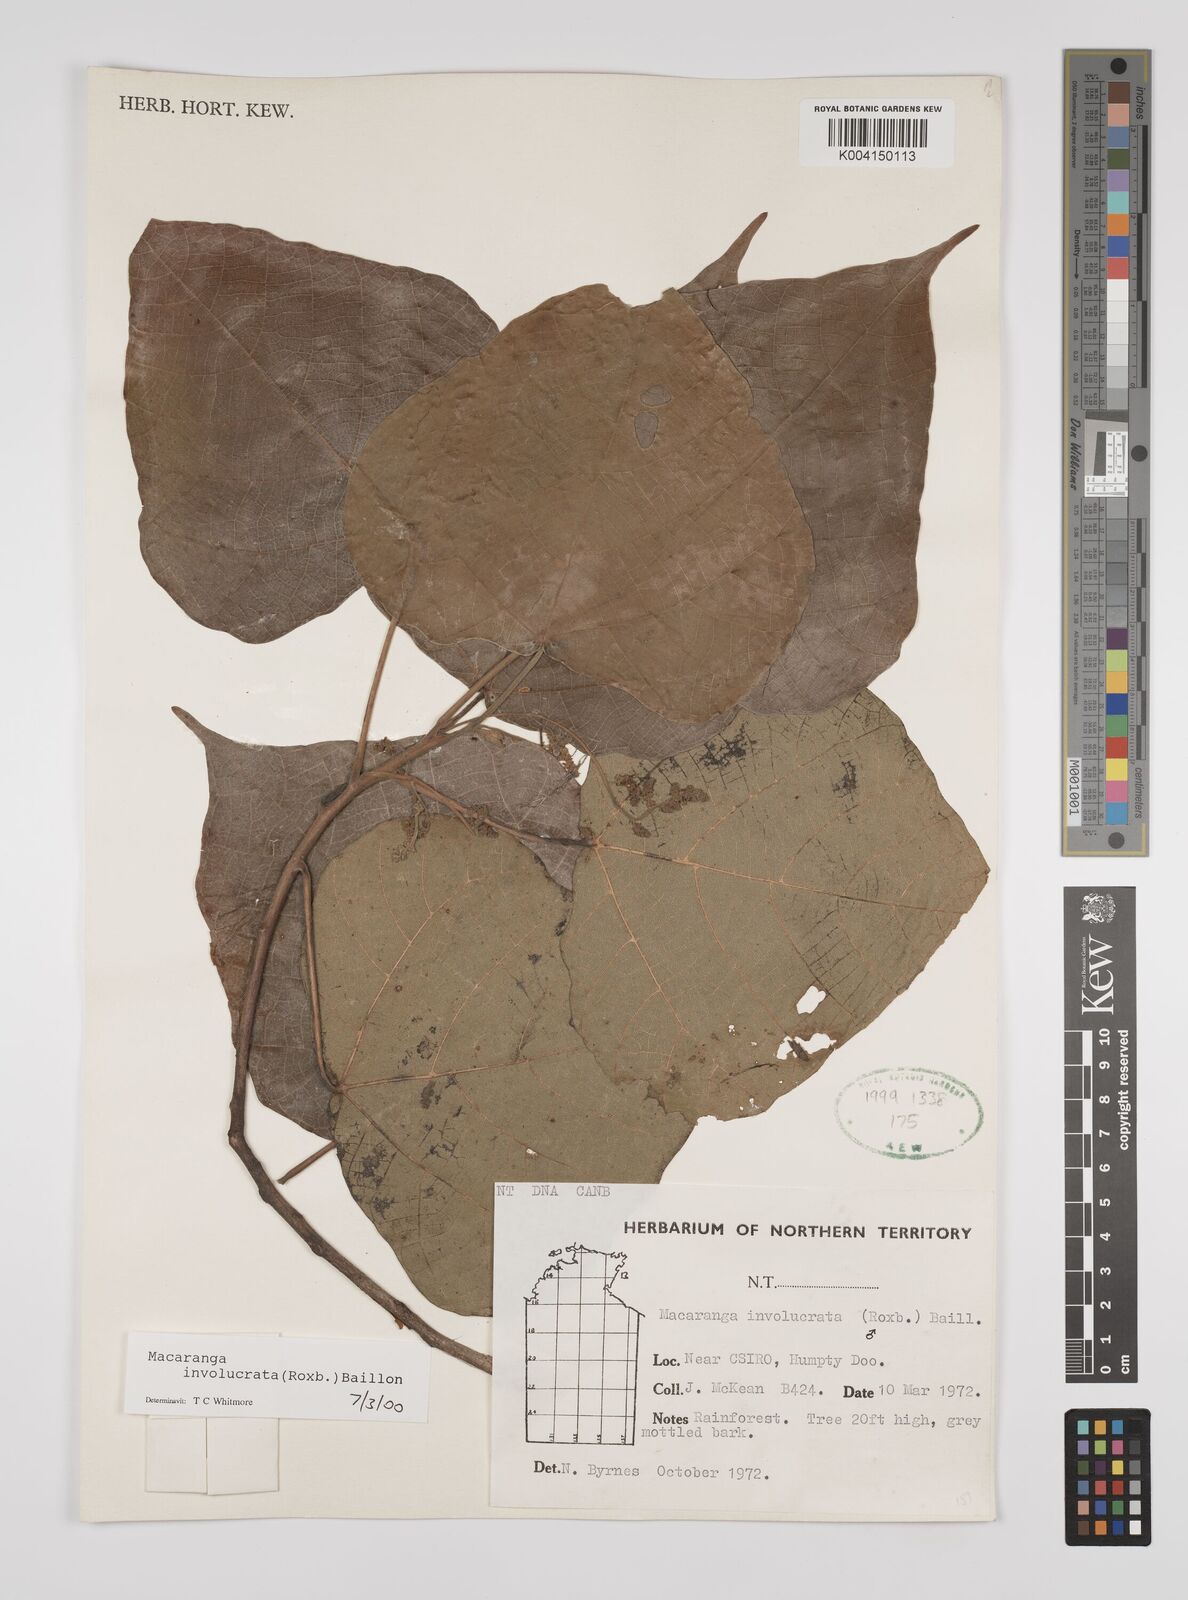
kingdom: Plantae
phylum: Tracheophyta
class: Magnoliopsida
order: Malpighiales
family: Euphorbiaceae
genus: Macaranga
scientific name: Macaranga involucrata
